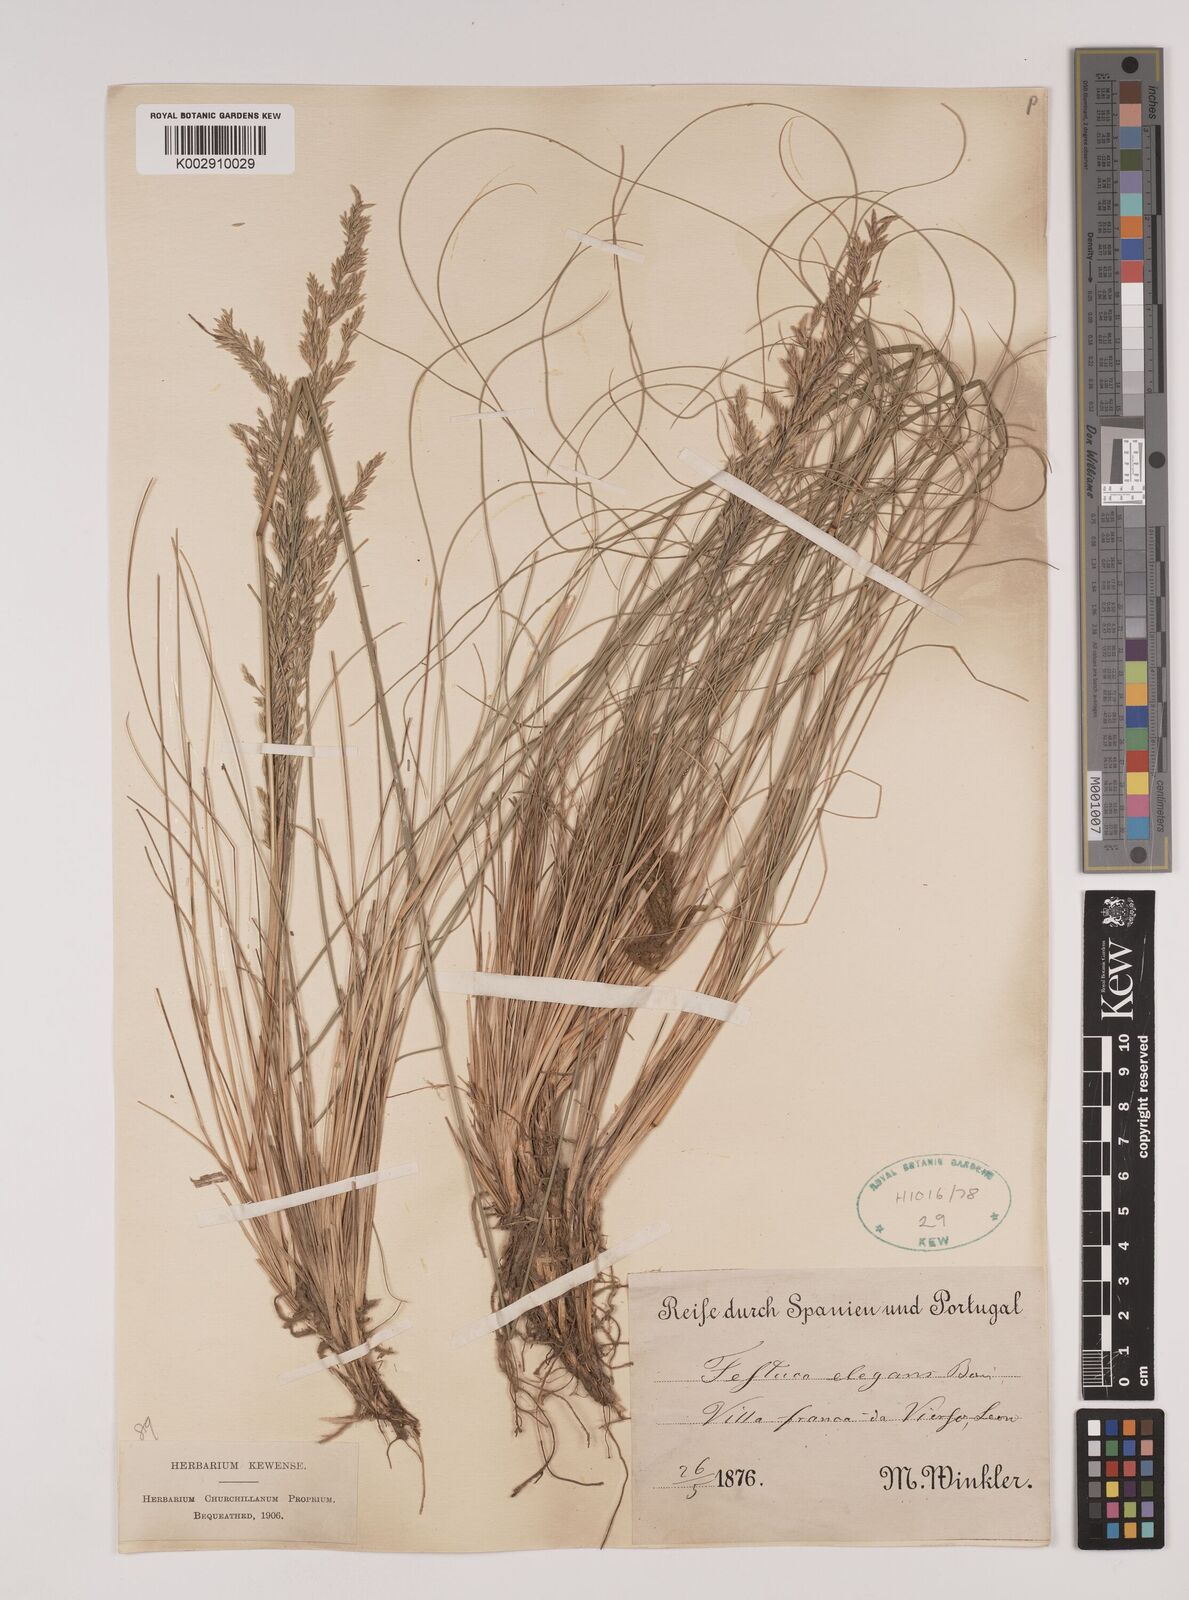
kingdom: Plantae
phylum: Tracheophyta
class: Liliopsida
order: Poales
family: Poaceae
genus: Festuca
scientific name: Festuca elegans
